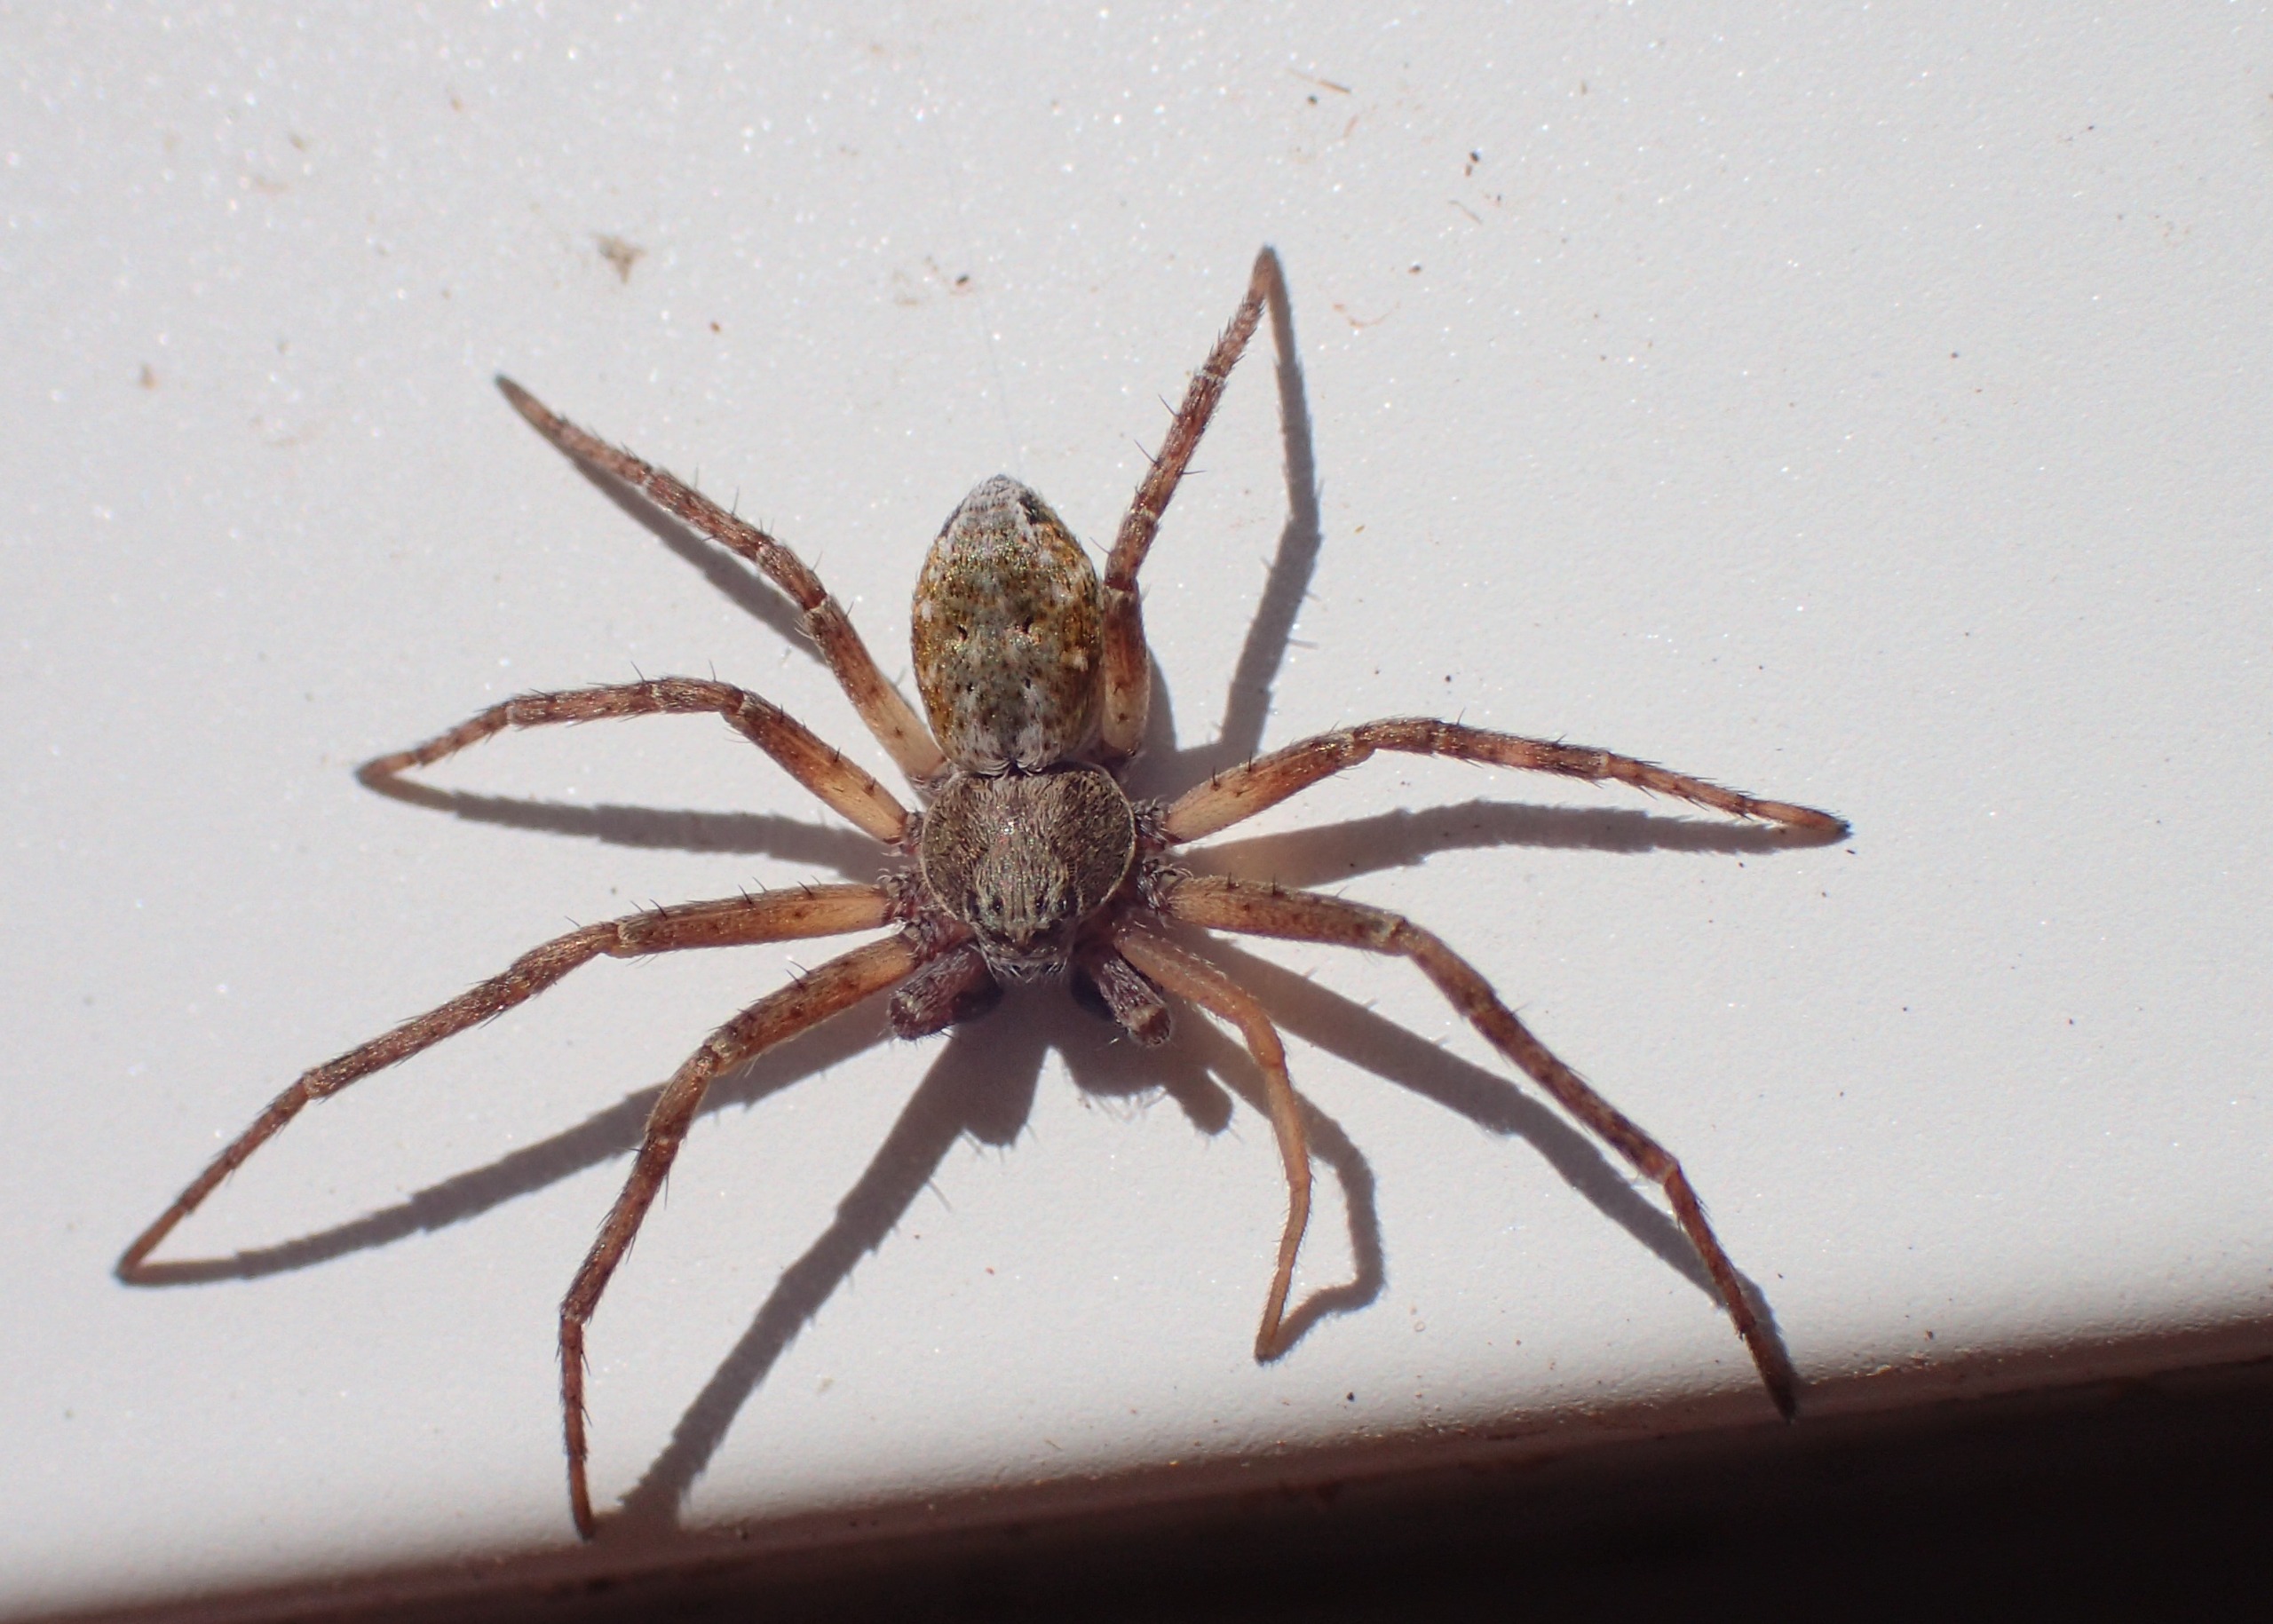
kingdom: Animalia
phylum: Arthropoda
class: Arachnida
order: Araneae
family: Philodromidae
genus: Philodromus
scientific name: Philodromus aureolus
